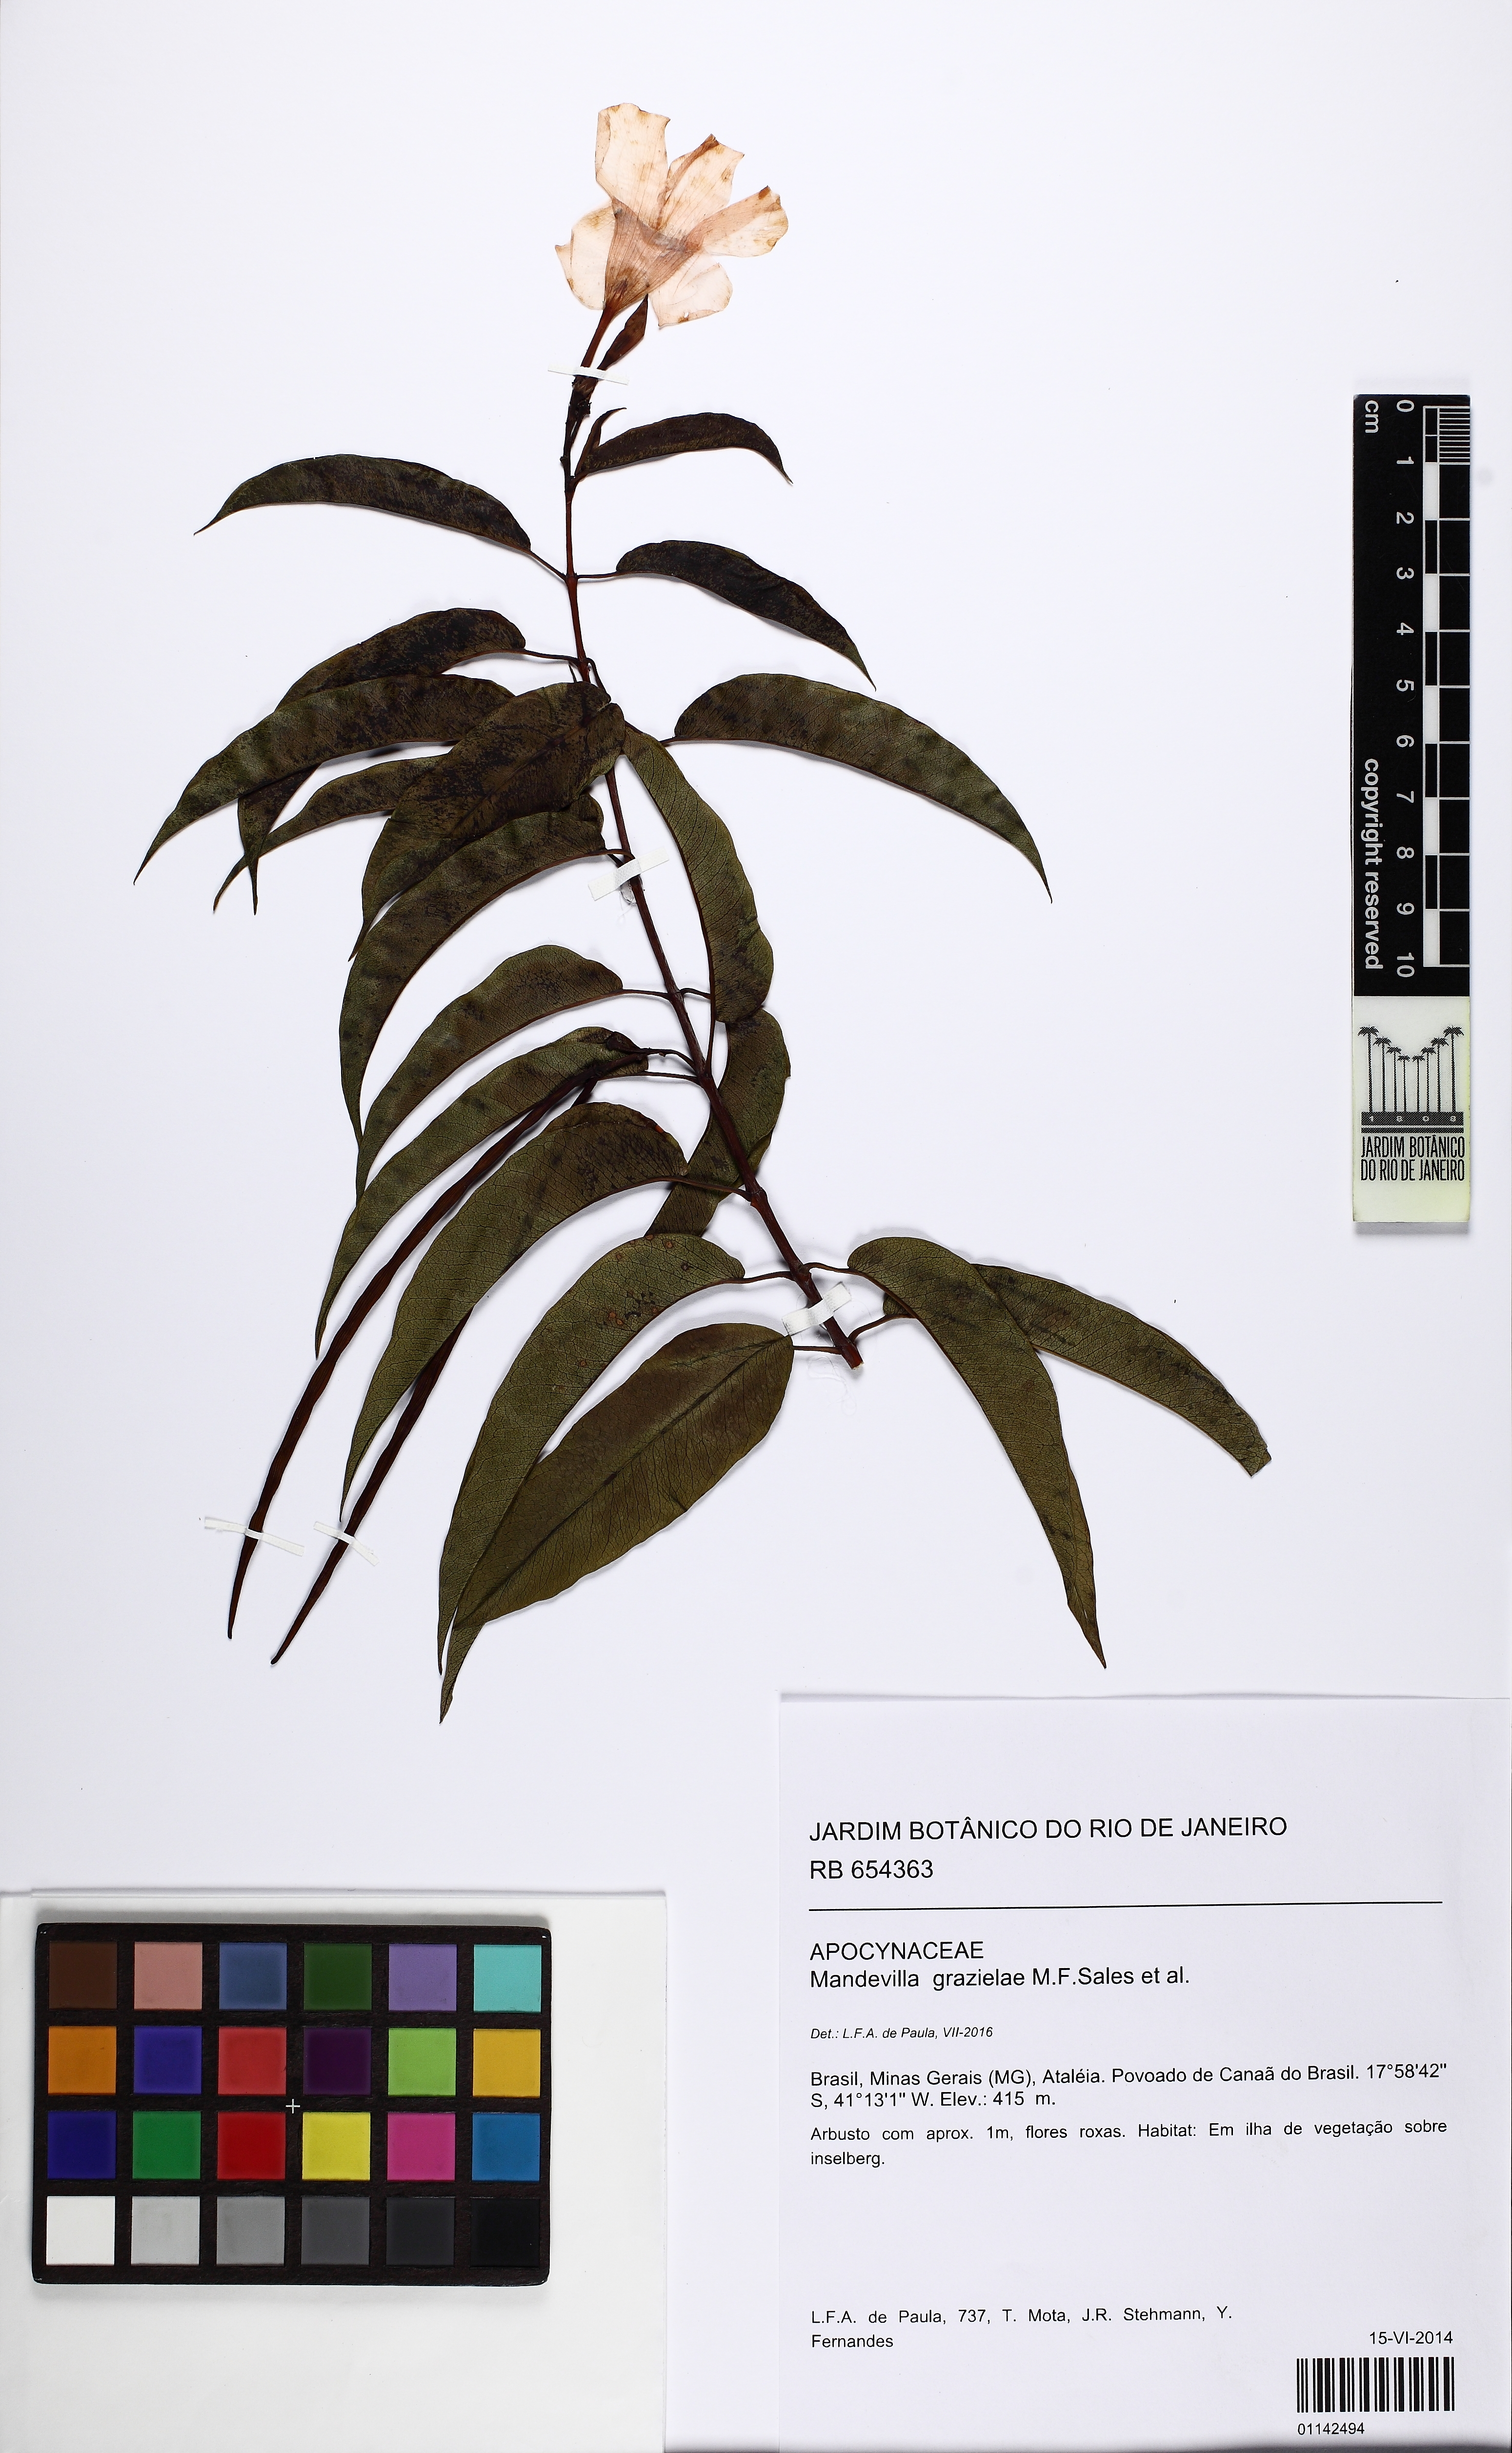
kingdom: Plantae
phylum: Tracheophyta
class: Magnoliopsida
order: Gentianales
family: Apocynaceae
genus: Mandevilla
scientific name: Mandevilla grazielae
